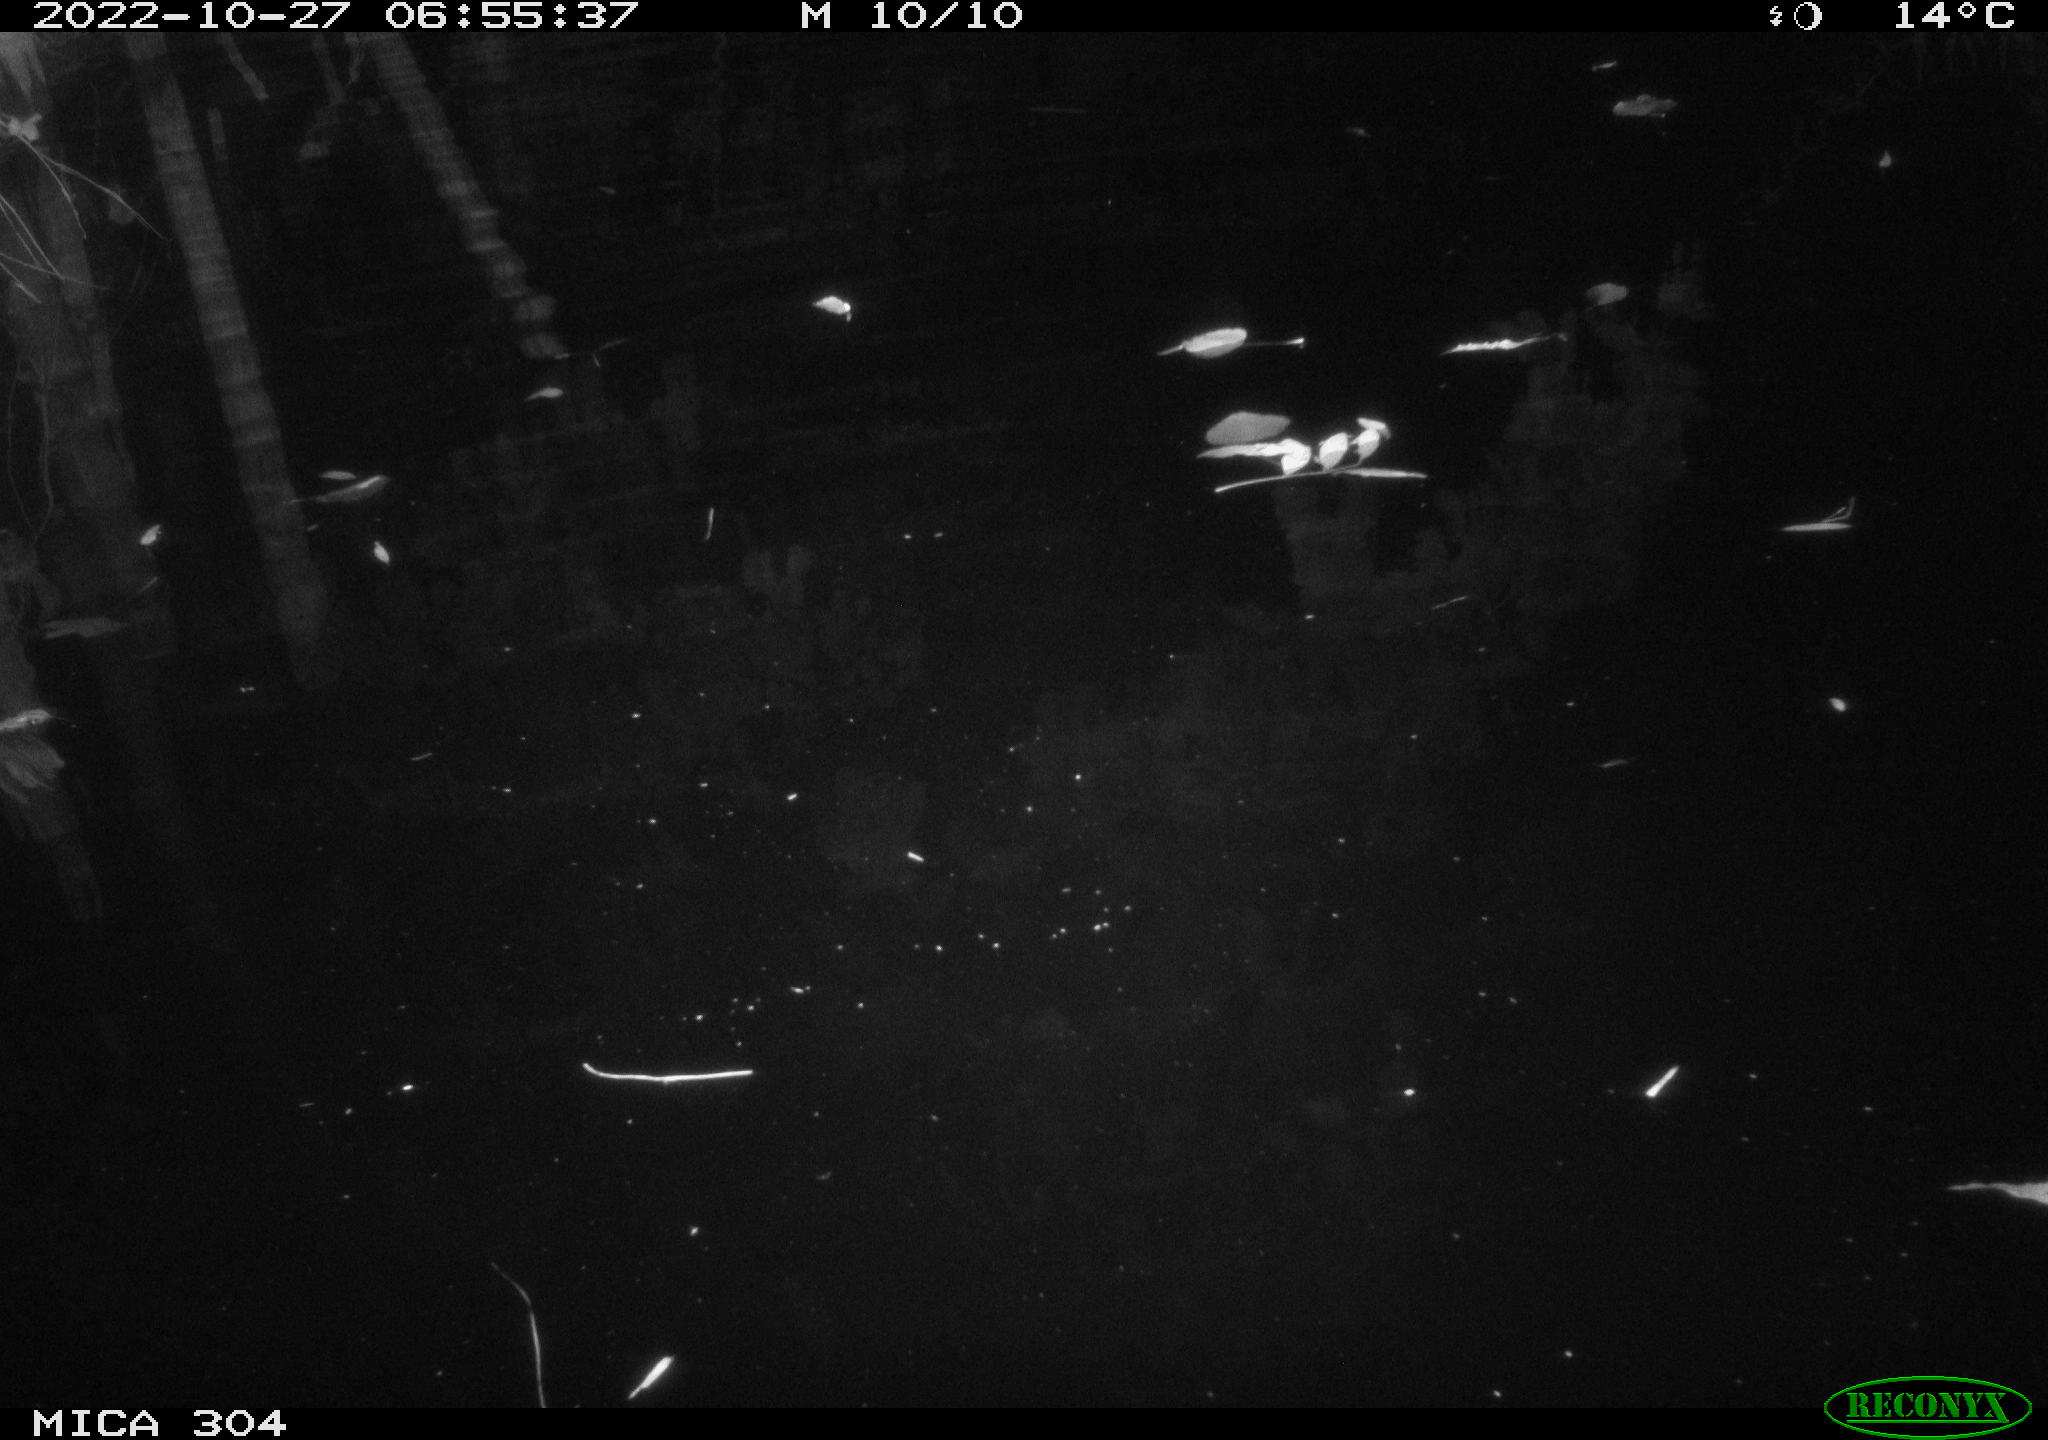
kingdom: Animalia
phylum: Chordata
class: Aves
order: Anseriformes
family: Anatidae
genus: Anas
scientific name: Anas
